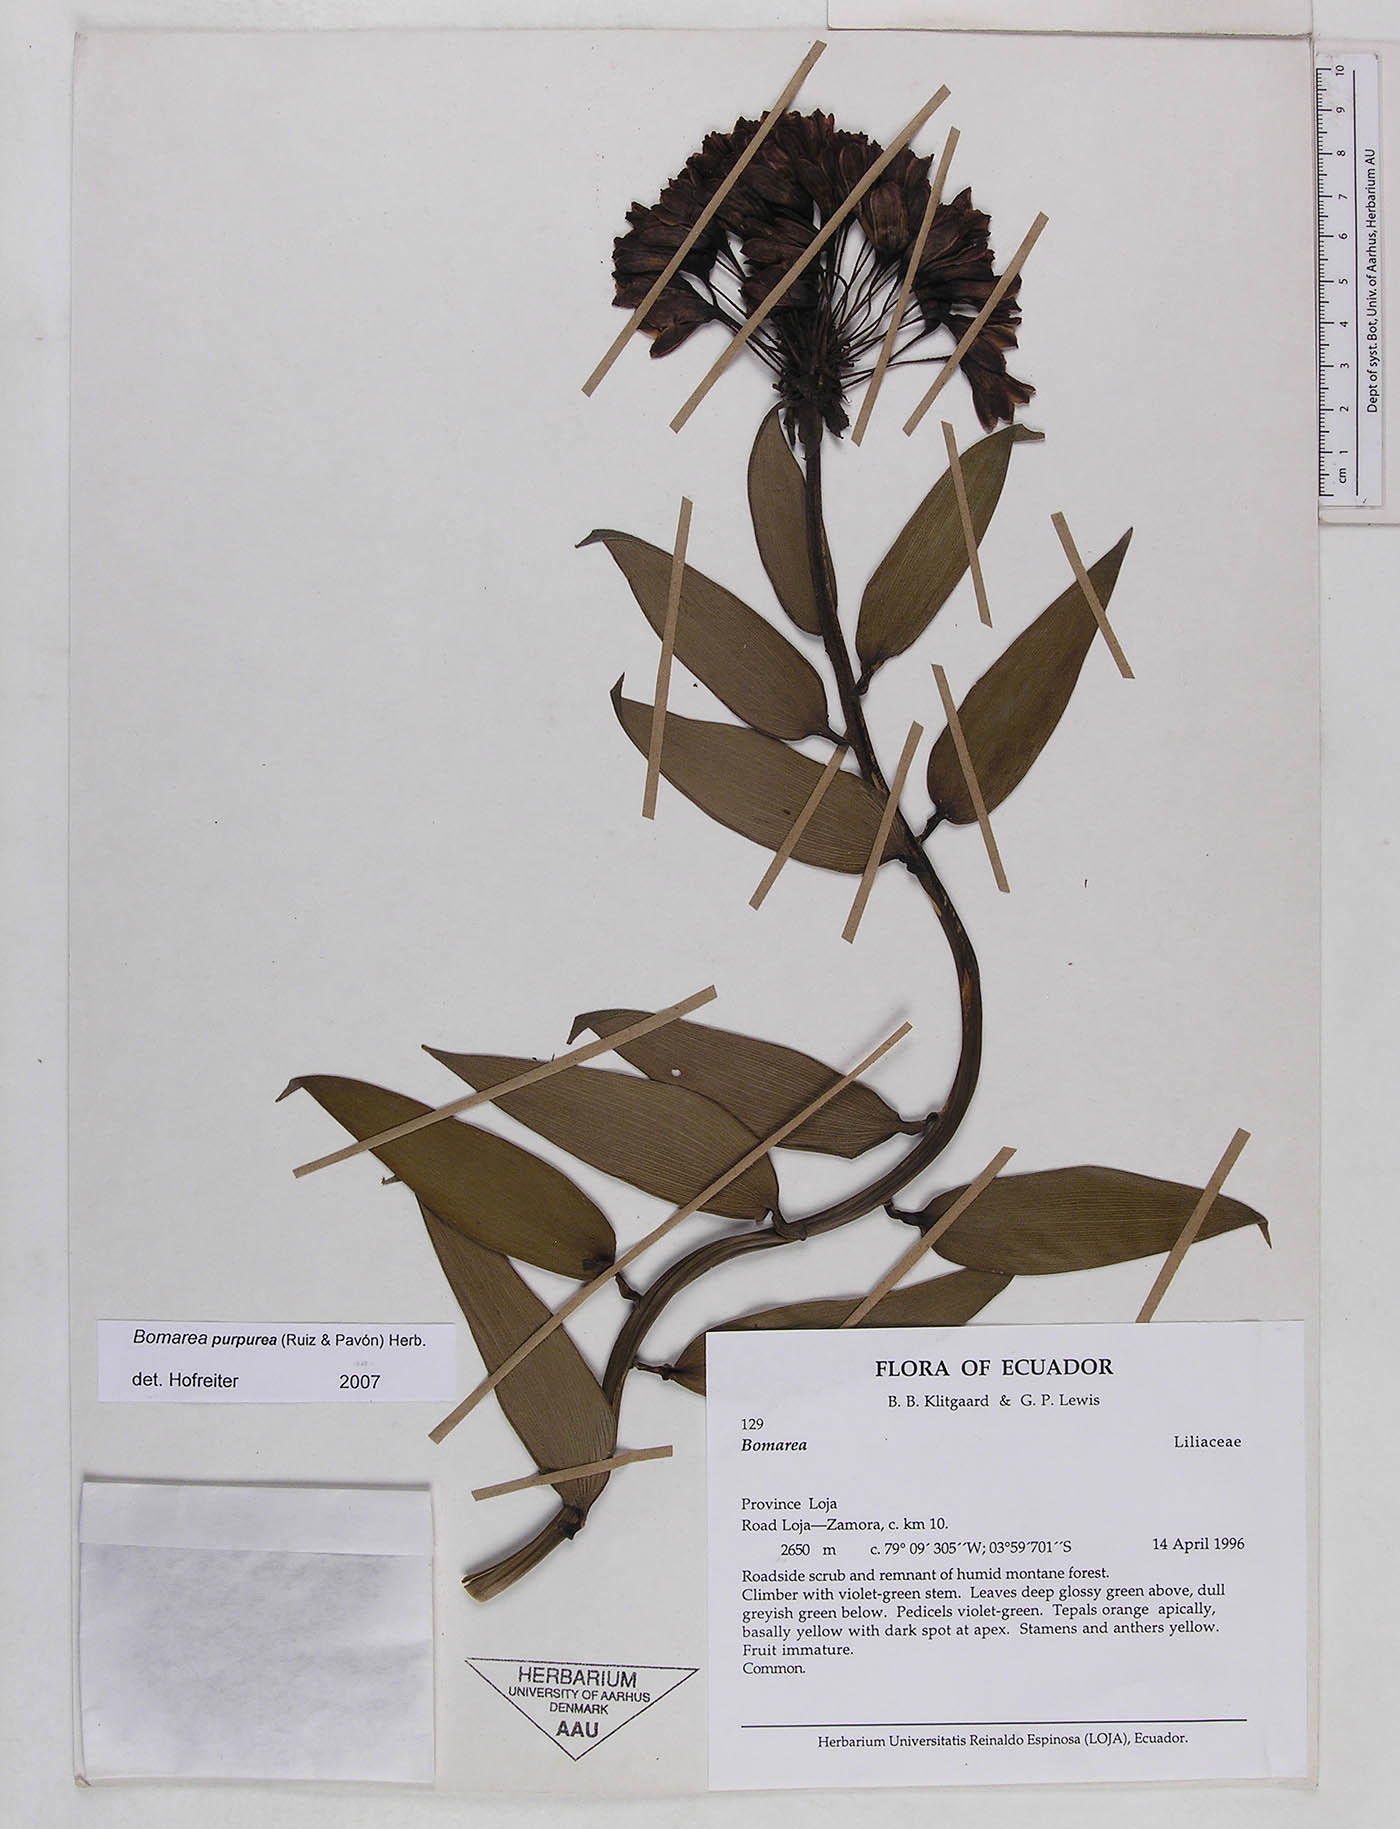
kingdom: Plantae
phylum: Tracheophyta
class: Liliopsida
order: Liliales
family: Alstroemeriaceae
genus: Bomarea
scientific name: Bomarea purpurea
